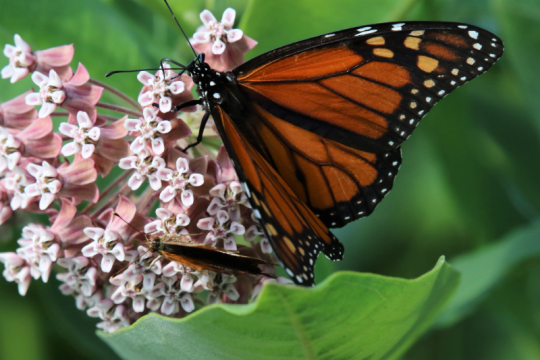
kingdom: Animalia
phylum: Arthropoda
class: Insecta
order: Lepidoptera
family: Nymphalidae
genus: Danaus
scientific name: Danaus plexippus
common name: Monarch
